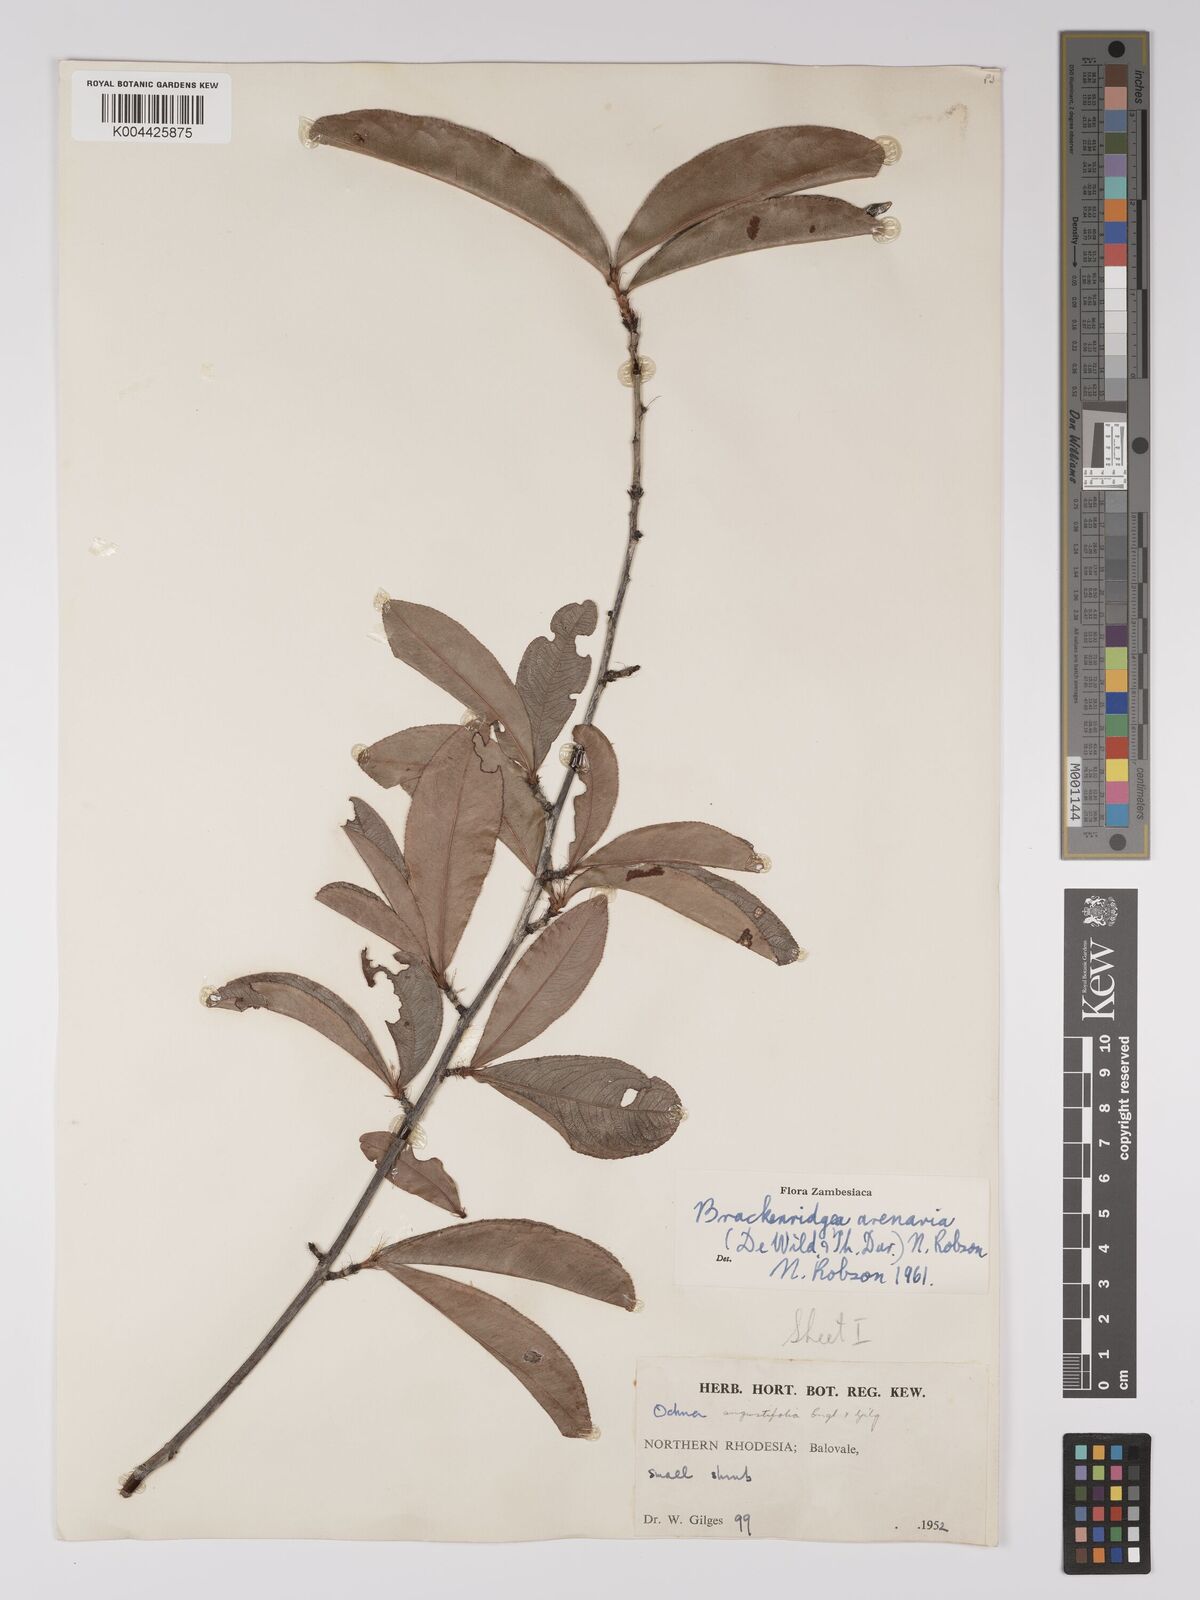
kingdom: Plantae
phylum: Tracheophyta
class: Magnoliopsida
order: Malpighiales
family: Ochnaceae
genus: Ochna
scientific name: Ochna arenaria
